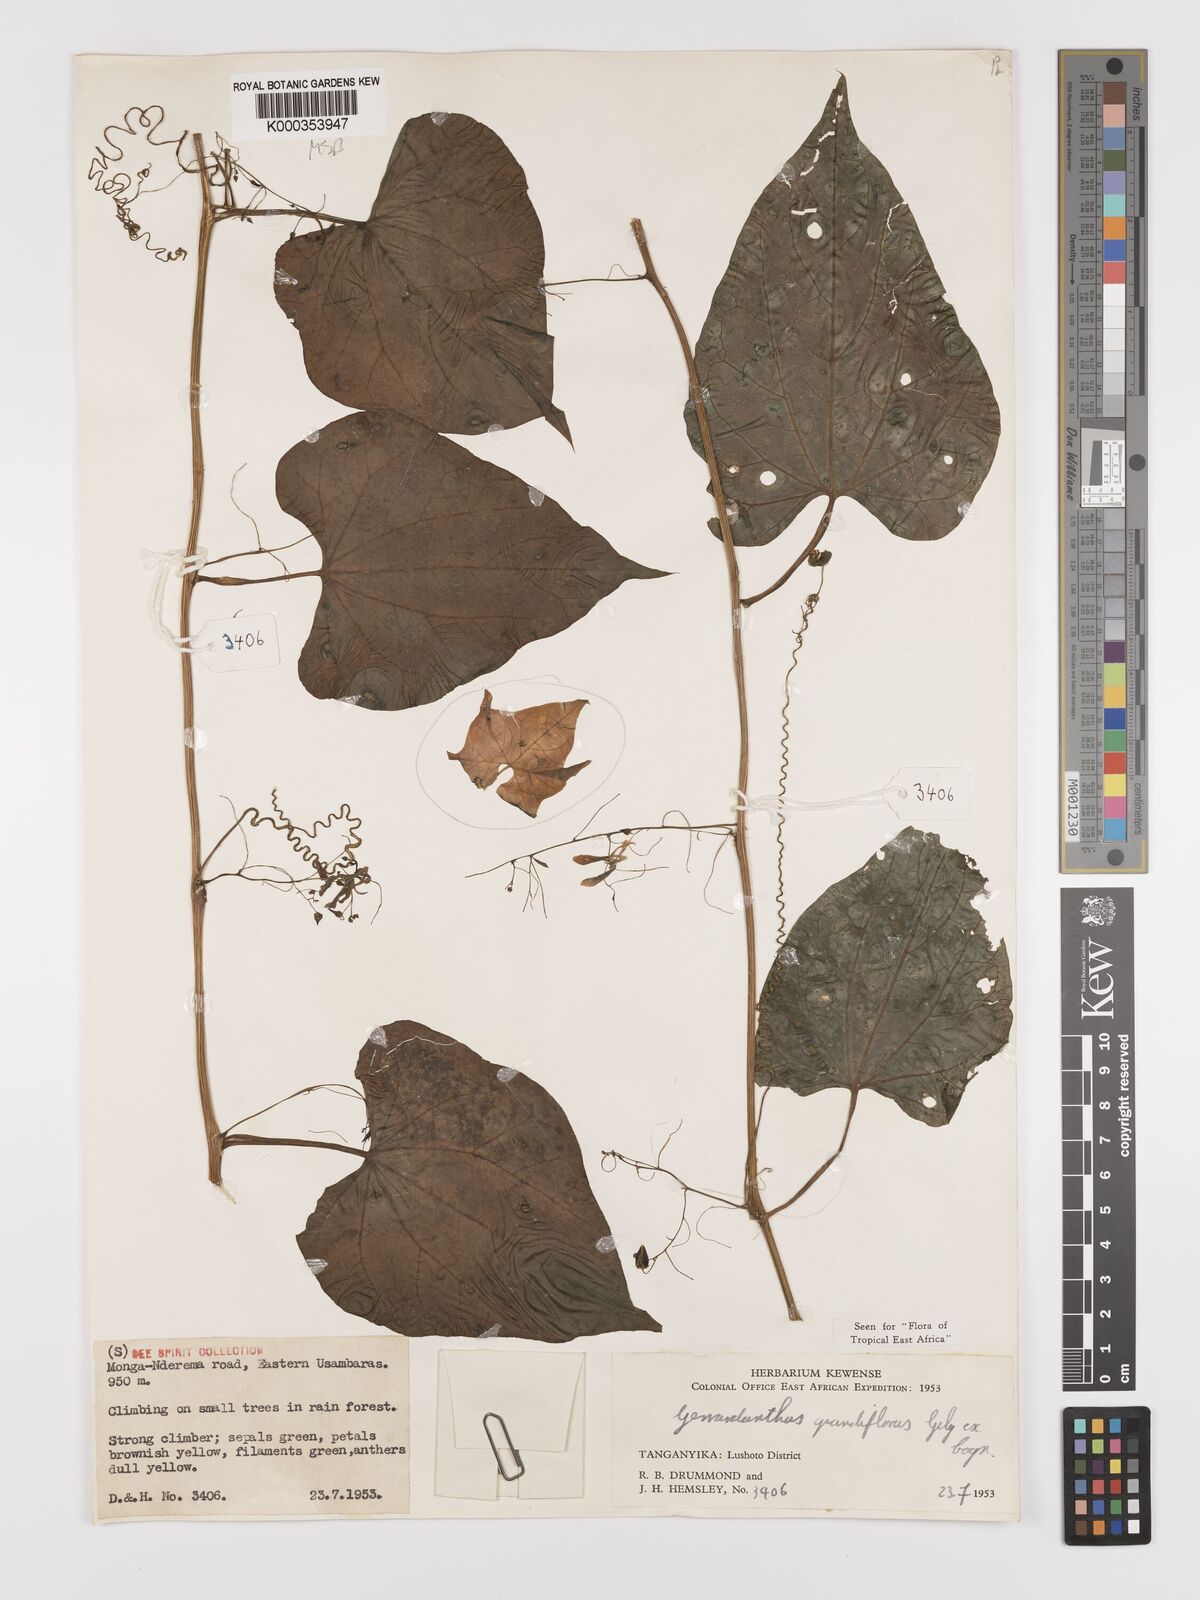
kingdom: Plantae
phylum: Tracheophyta
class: Magnoliopsida
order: Cucurbitales
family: Cucurbitaceae
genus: Gerrardanthus
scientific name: Gerrardanthus
